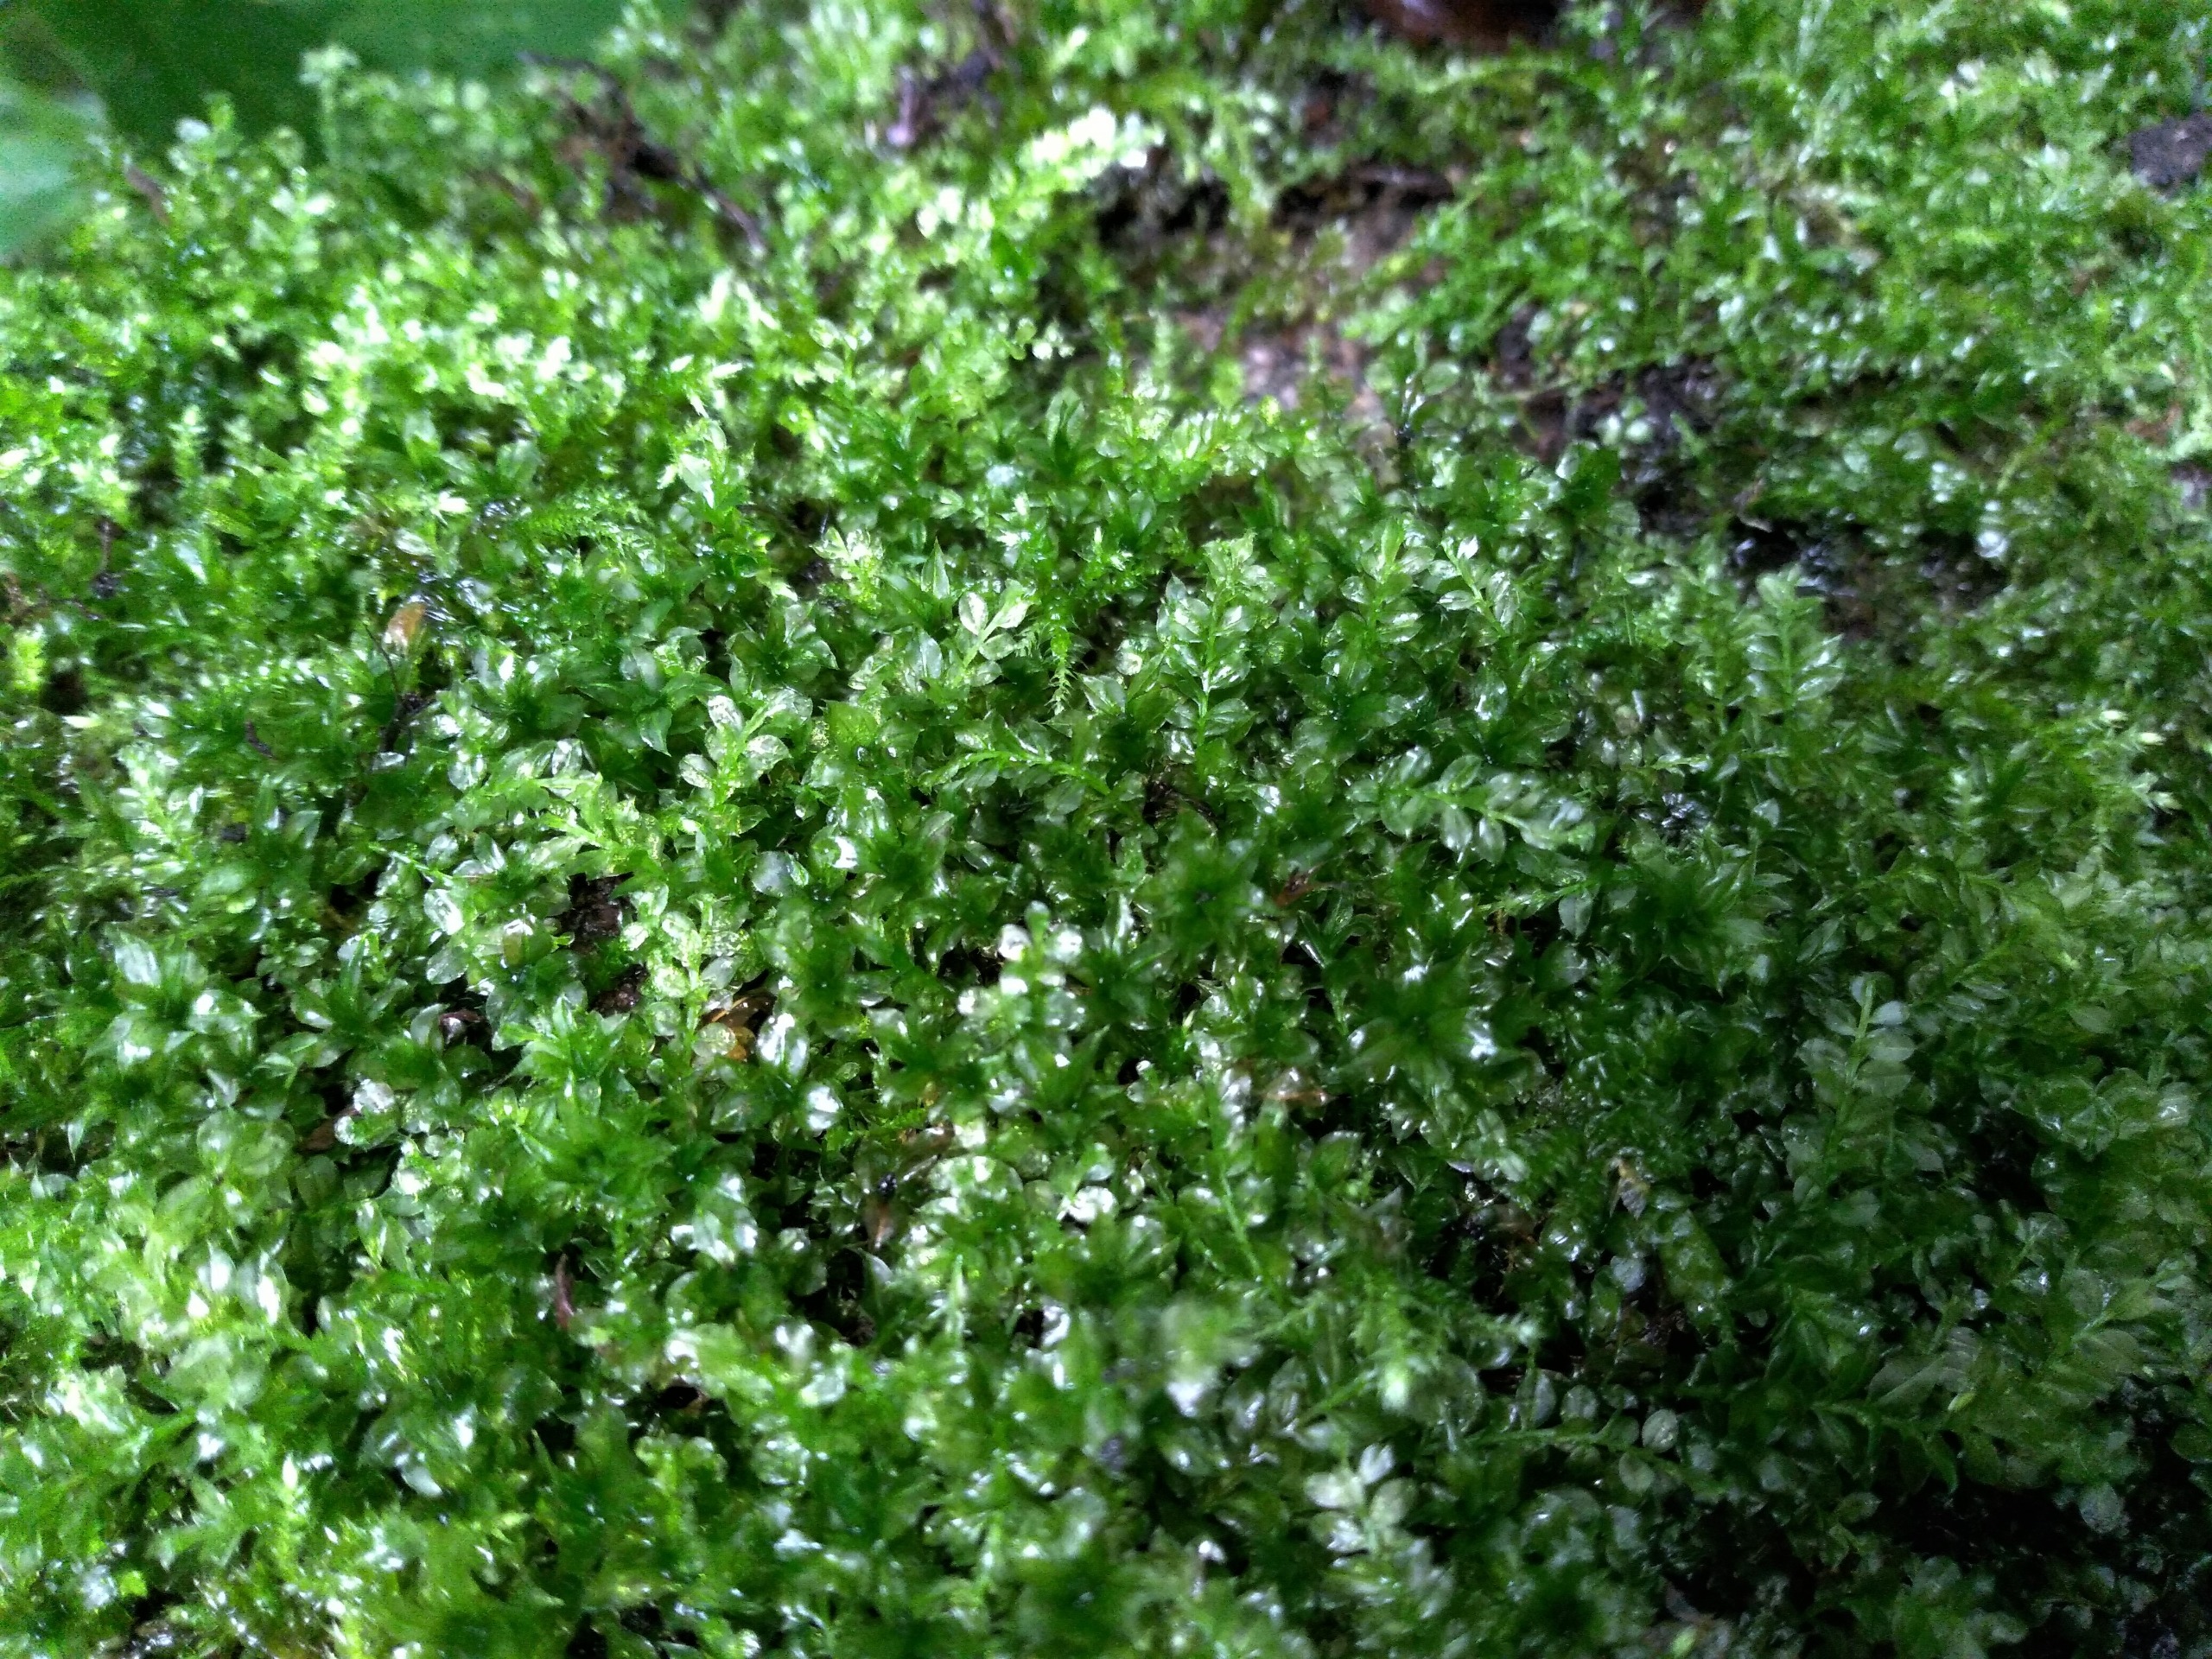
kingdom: Plantae
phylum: Bryophyta
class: Bryopsida
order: Bryales
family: Mniaceae
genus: Plagiomnium
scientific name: Plagiomnium cuspidatum
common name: Gærde-krybstjerne
